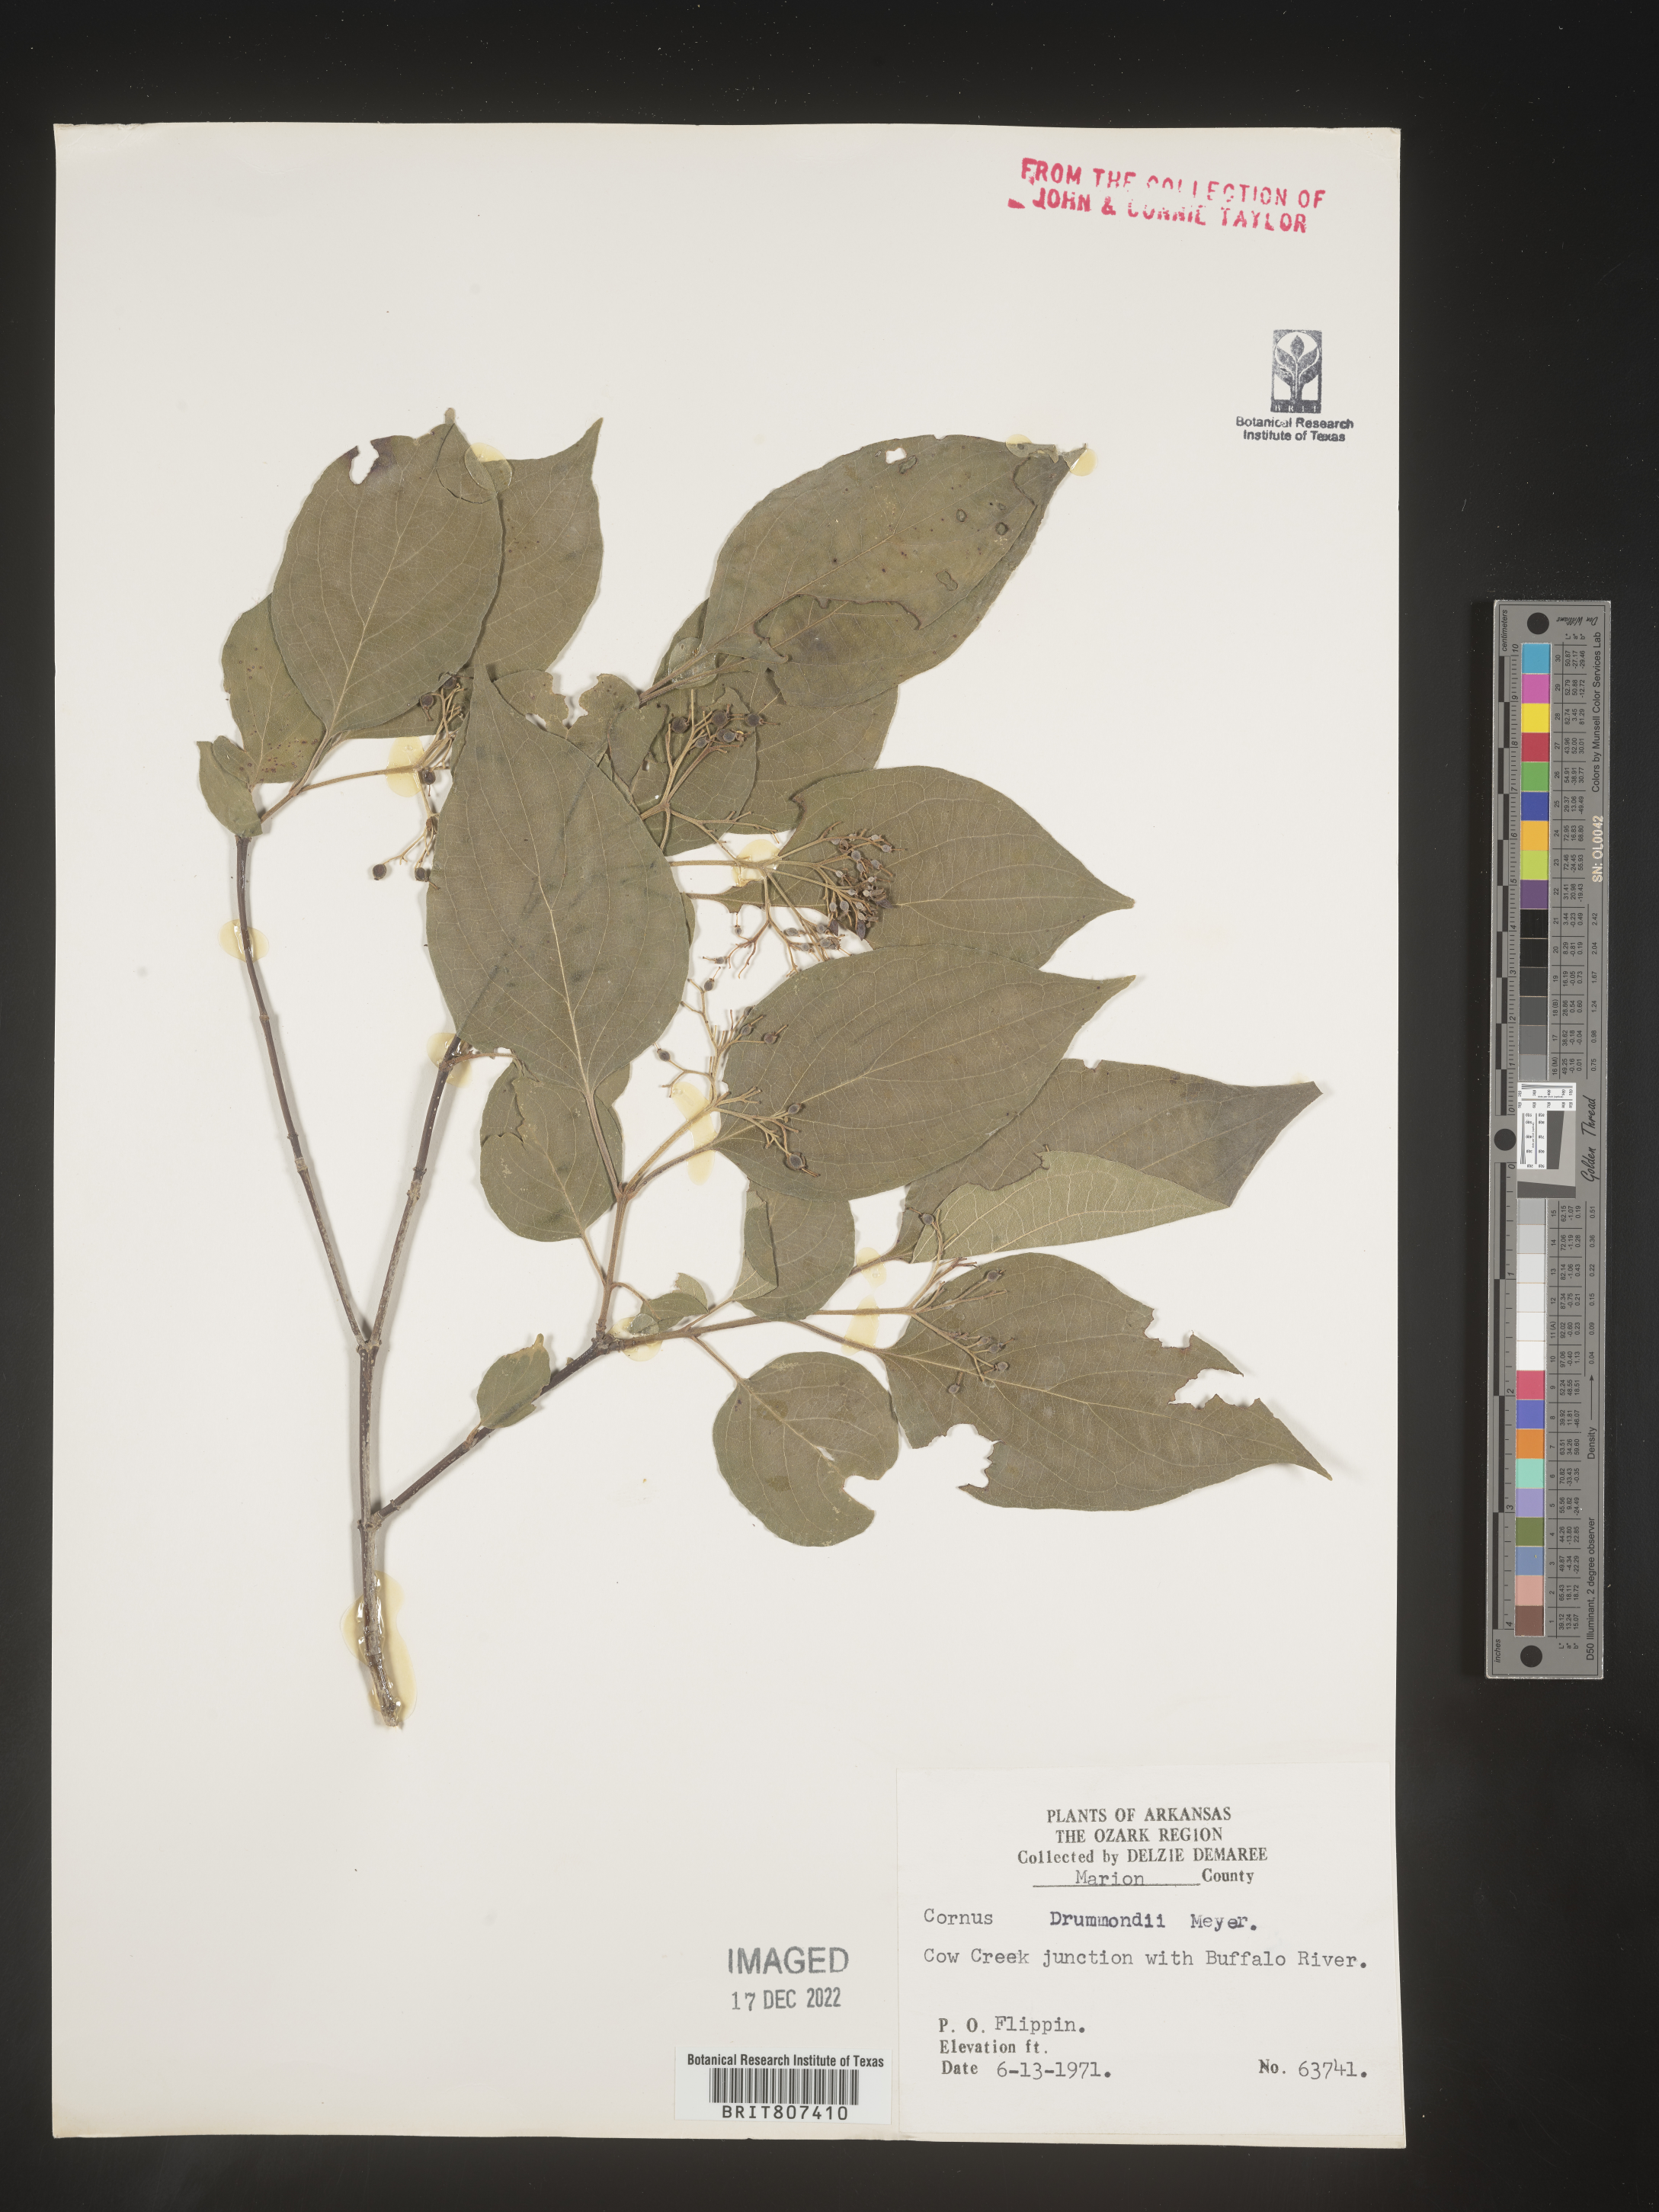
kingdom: Plantae
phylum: Tracheophyta
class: Magnoliopsida
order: Cornales
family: Cornaceae
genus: Cornus
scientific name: Cornus drummondii
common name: Rough-leaf dogwood
